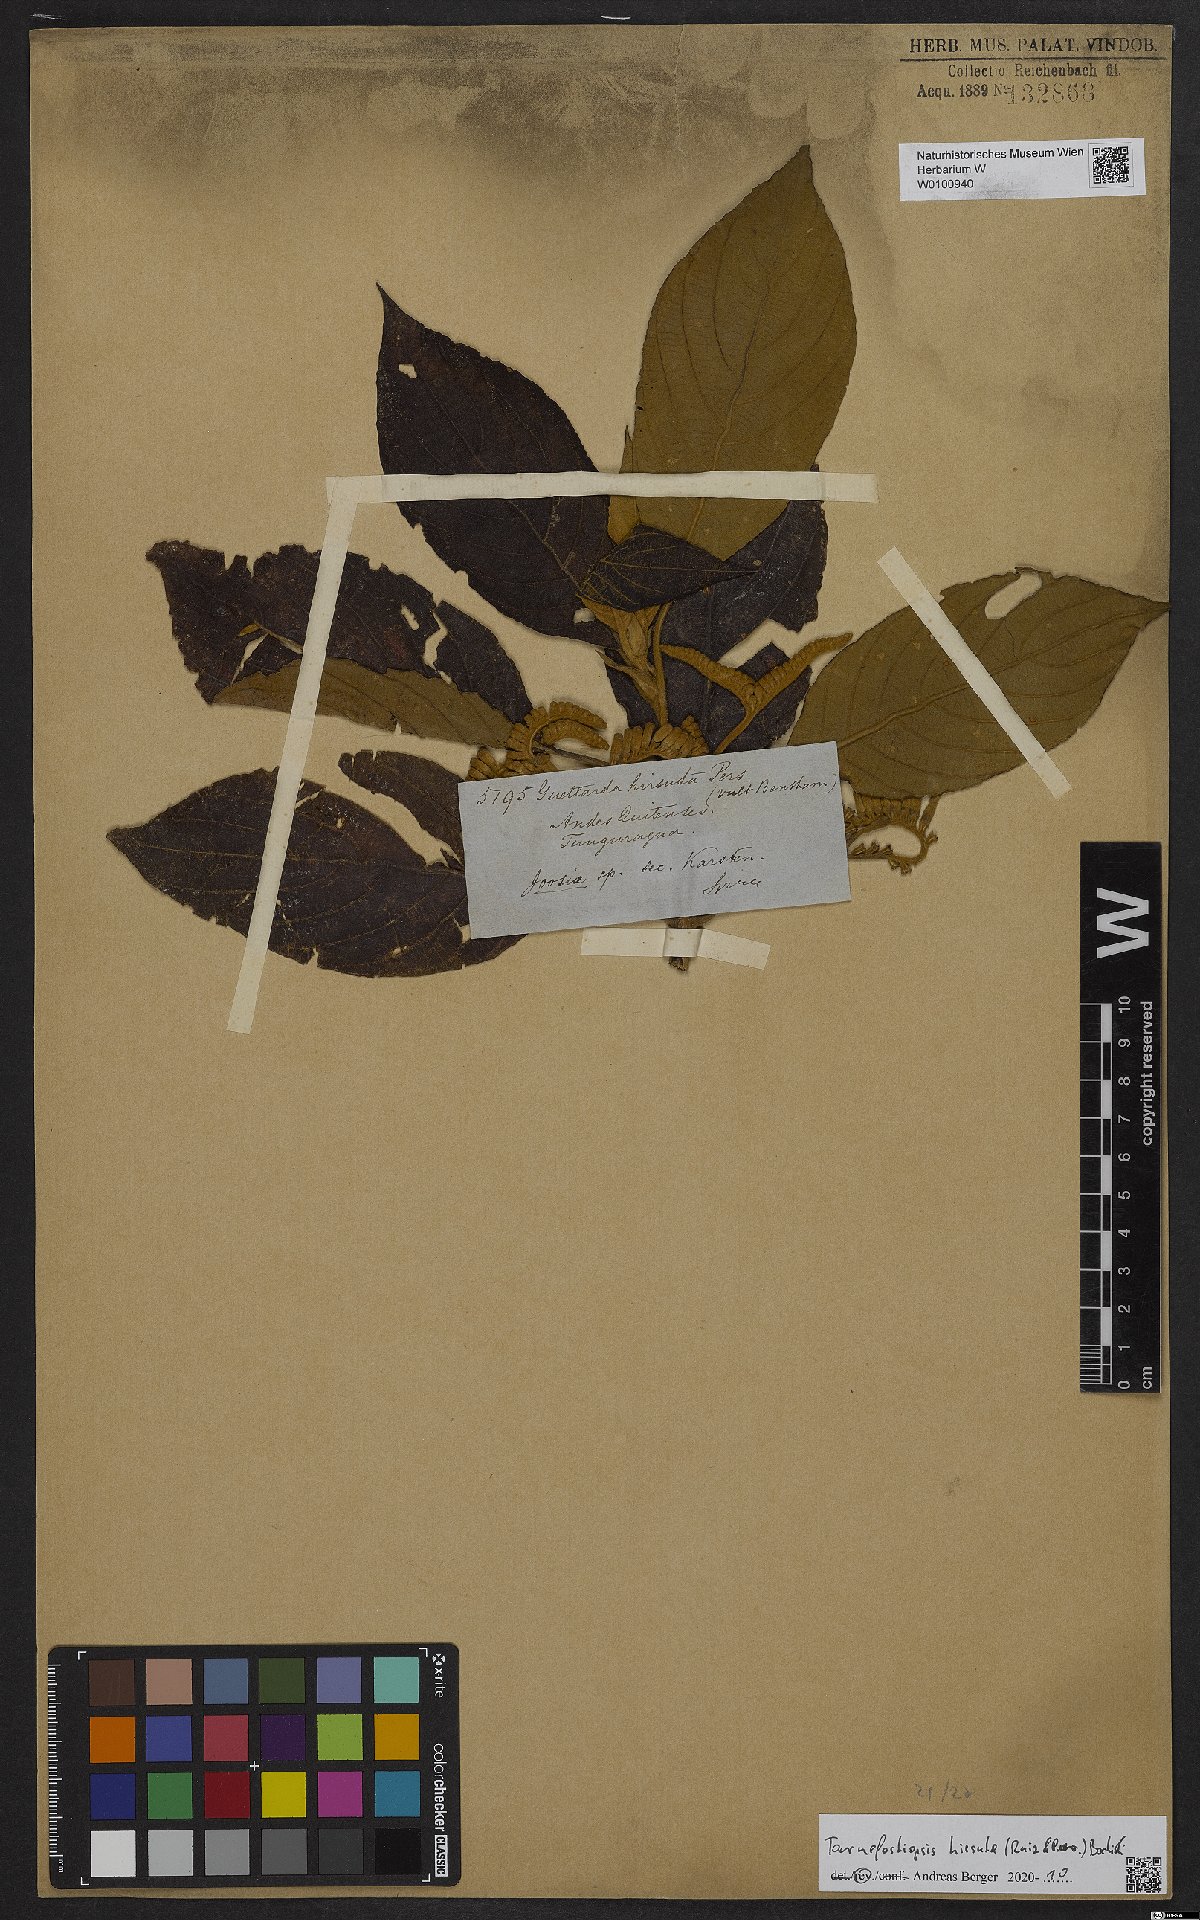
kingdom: Plantae
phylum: Tracheophyta
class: Magnoliopsida
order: Gentianales
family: Rubiaceae
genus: Tournefortiopsis
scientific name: Tournefortiopsis hirsuta
